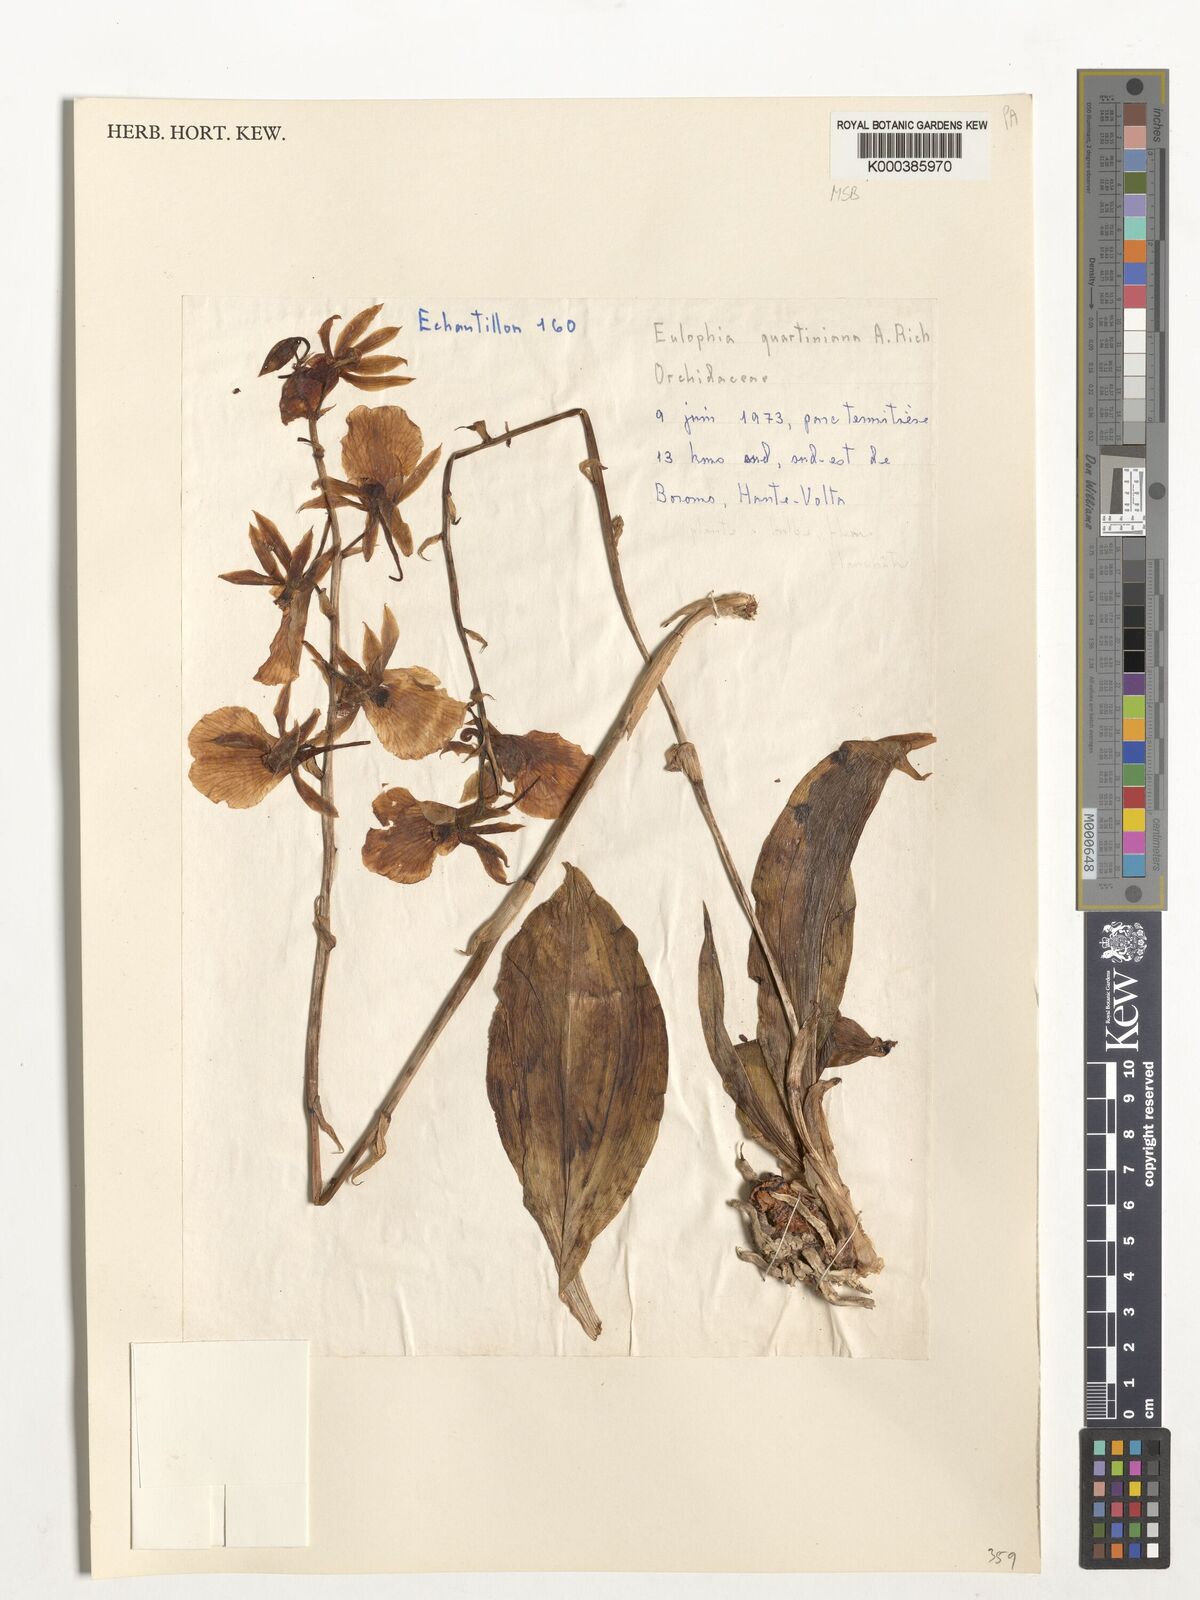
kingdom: Plantae
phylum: Tracheophyta
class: Liliopsida
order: Asparagales
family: Orchidaceae
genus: Eulophia
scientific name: Eulophia guineensis
